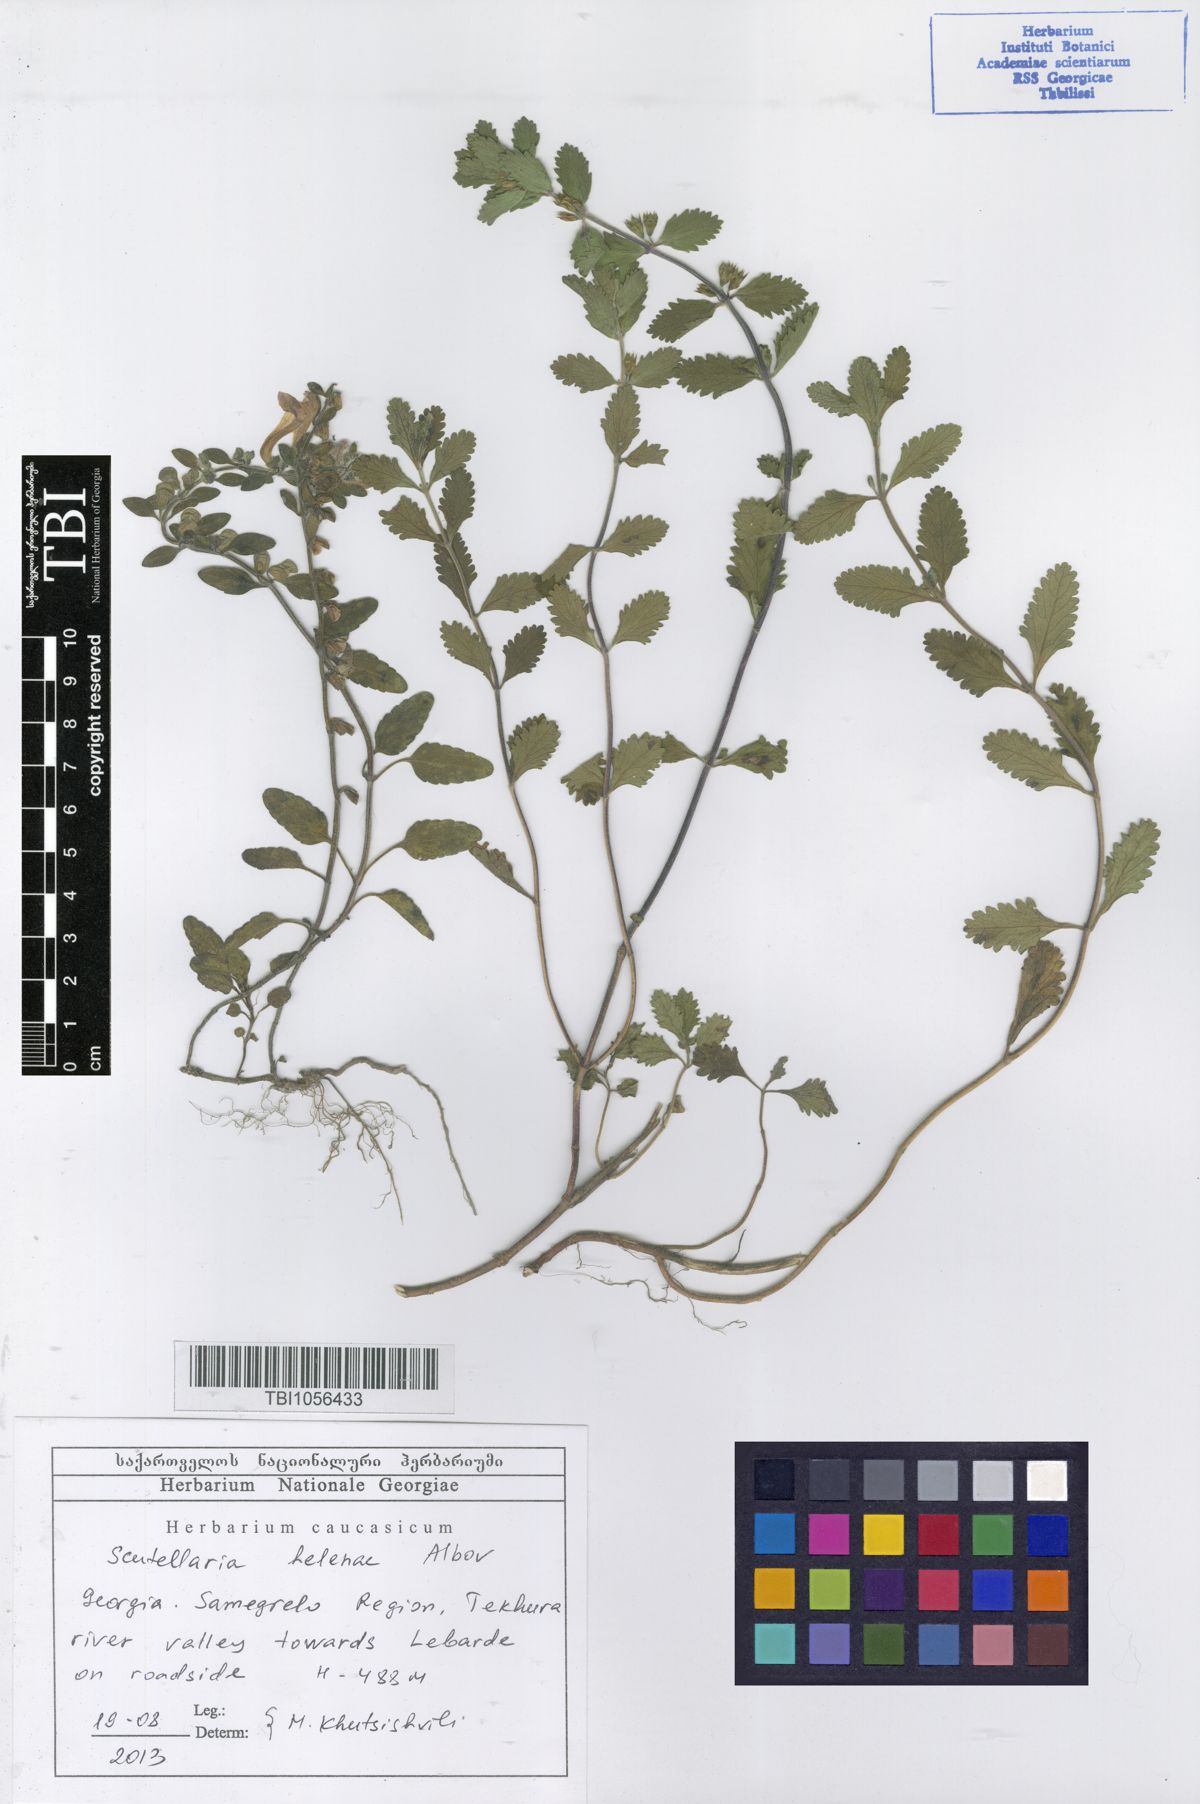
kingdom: Plantae
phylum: Tracheophyta
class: Magnoliopsida
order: Lamiales
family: Lamiaceae
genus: Scutellaria
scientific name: Scutellaria helenae
